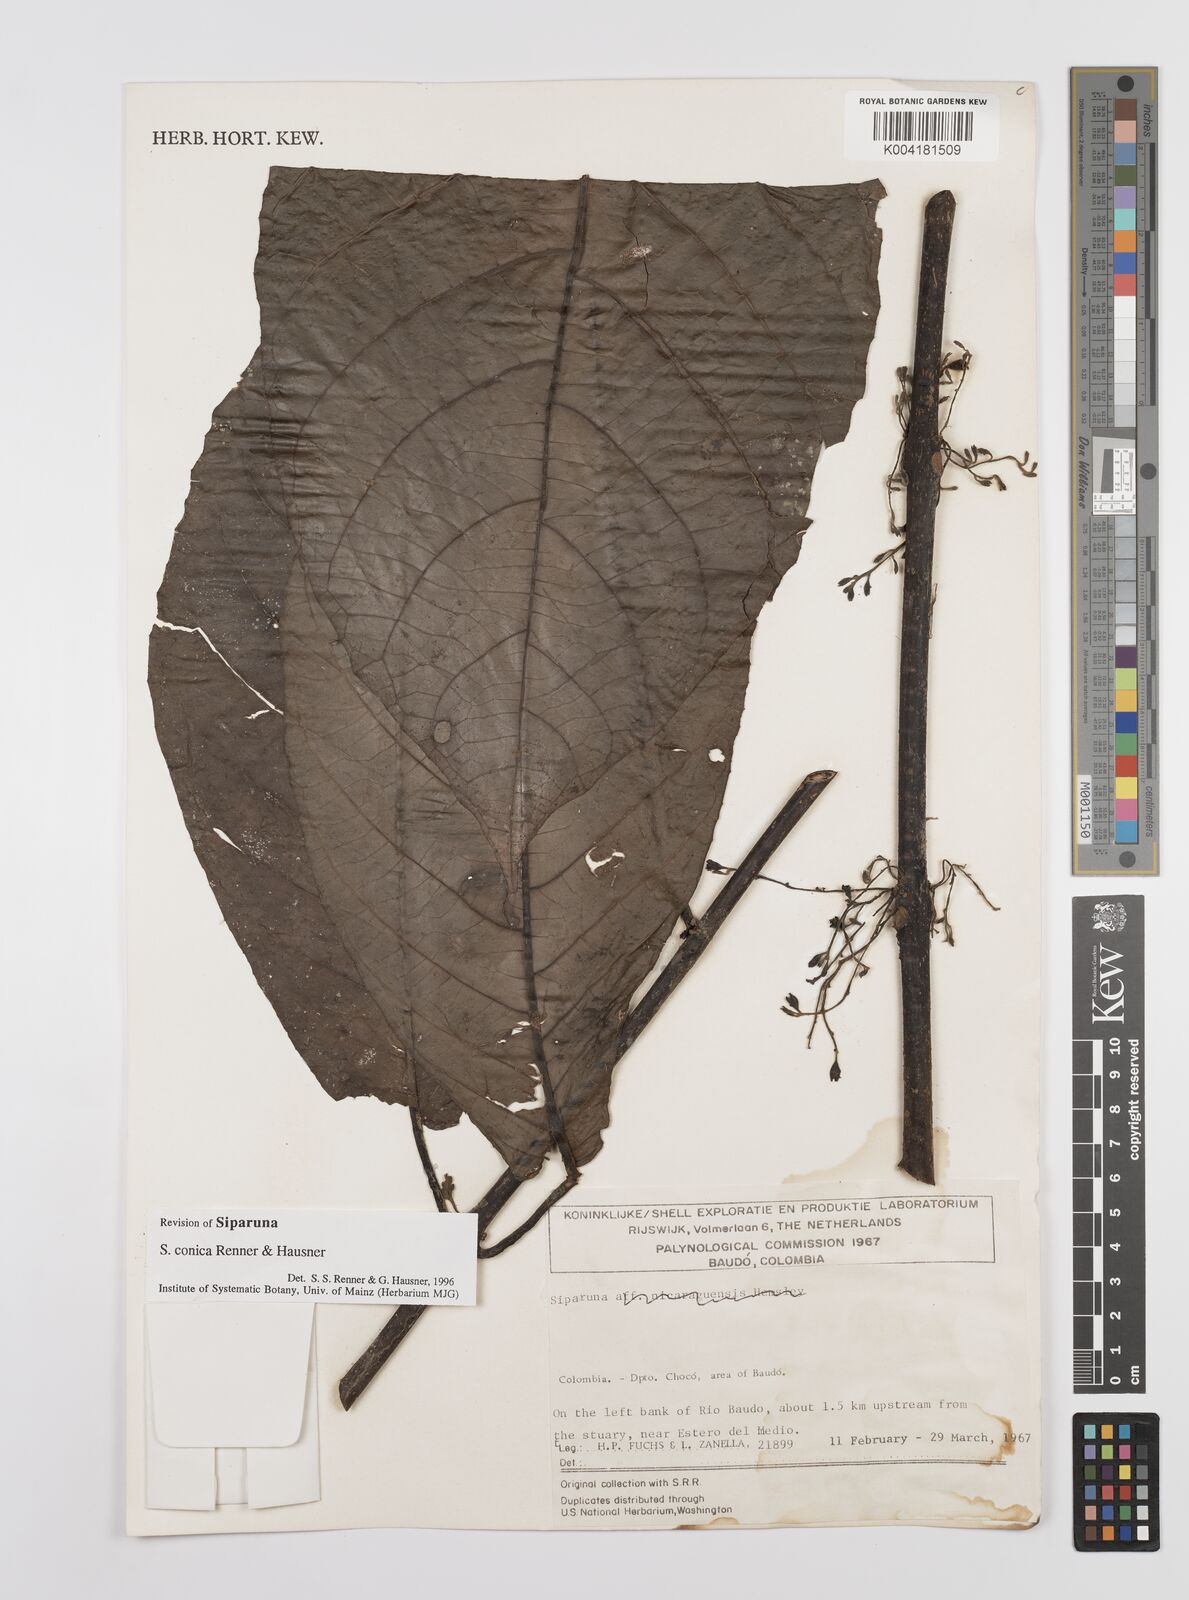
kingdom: Plantae
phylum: Tracheophyta
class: Magnoliopsida
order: Laurales
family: Siparunaceae
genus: Siparuna
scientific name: Siparuna conica
